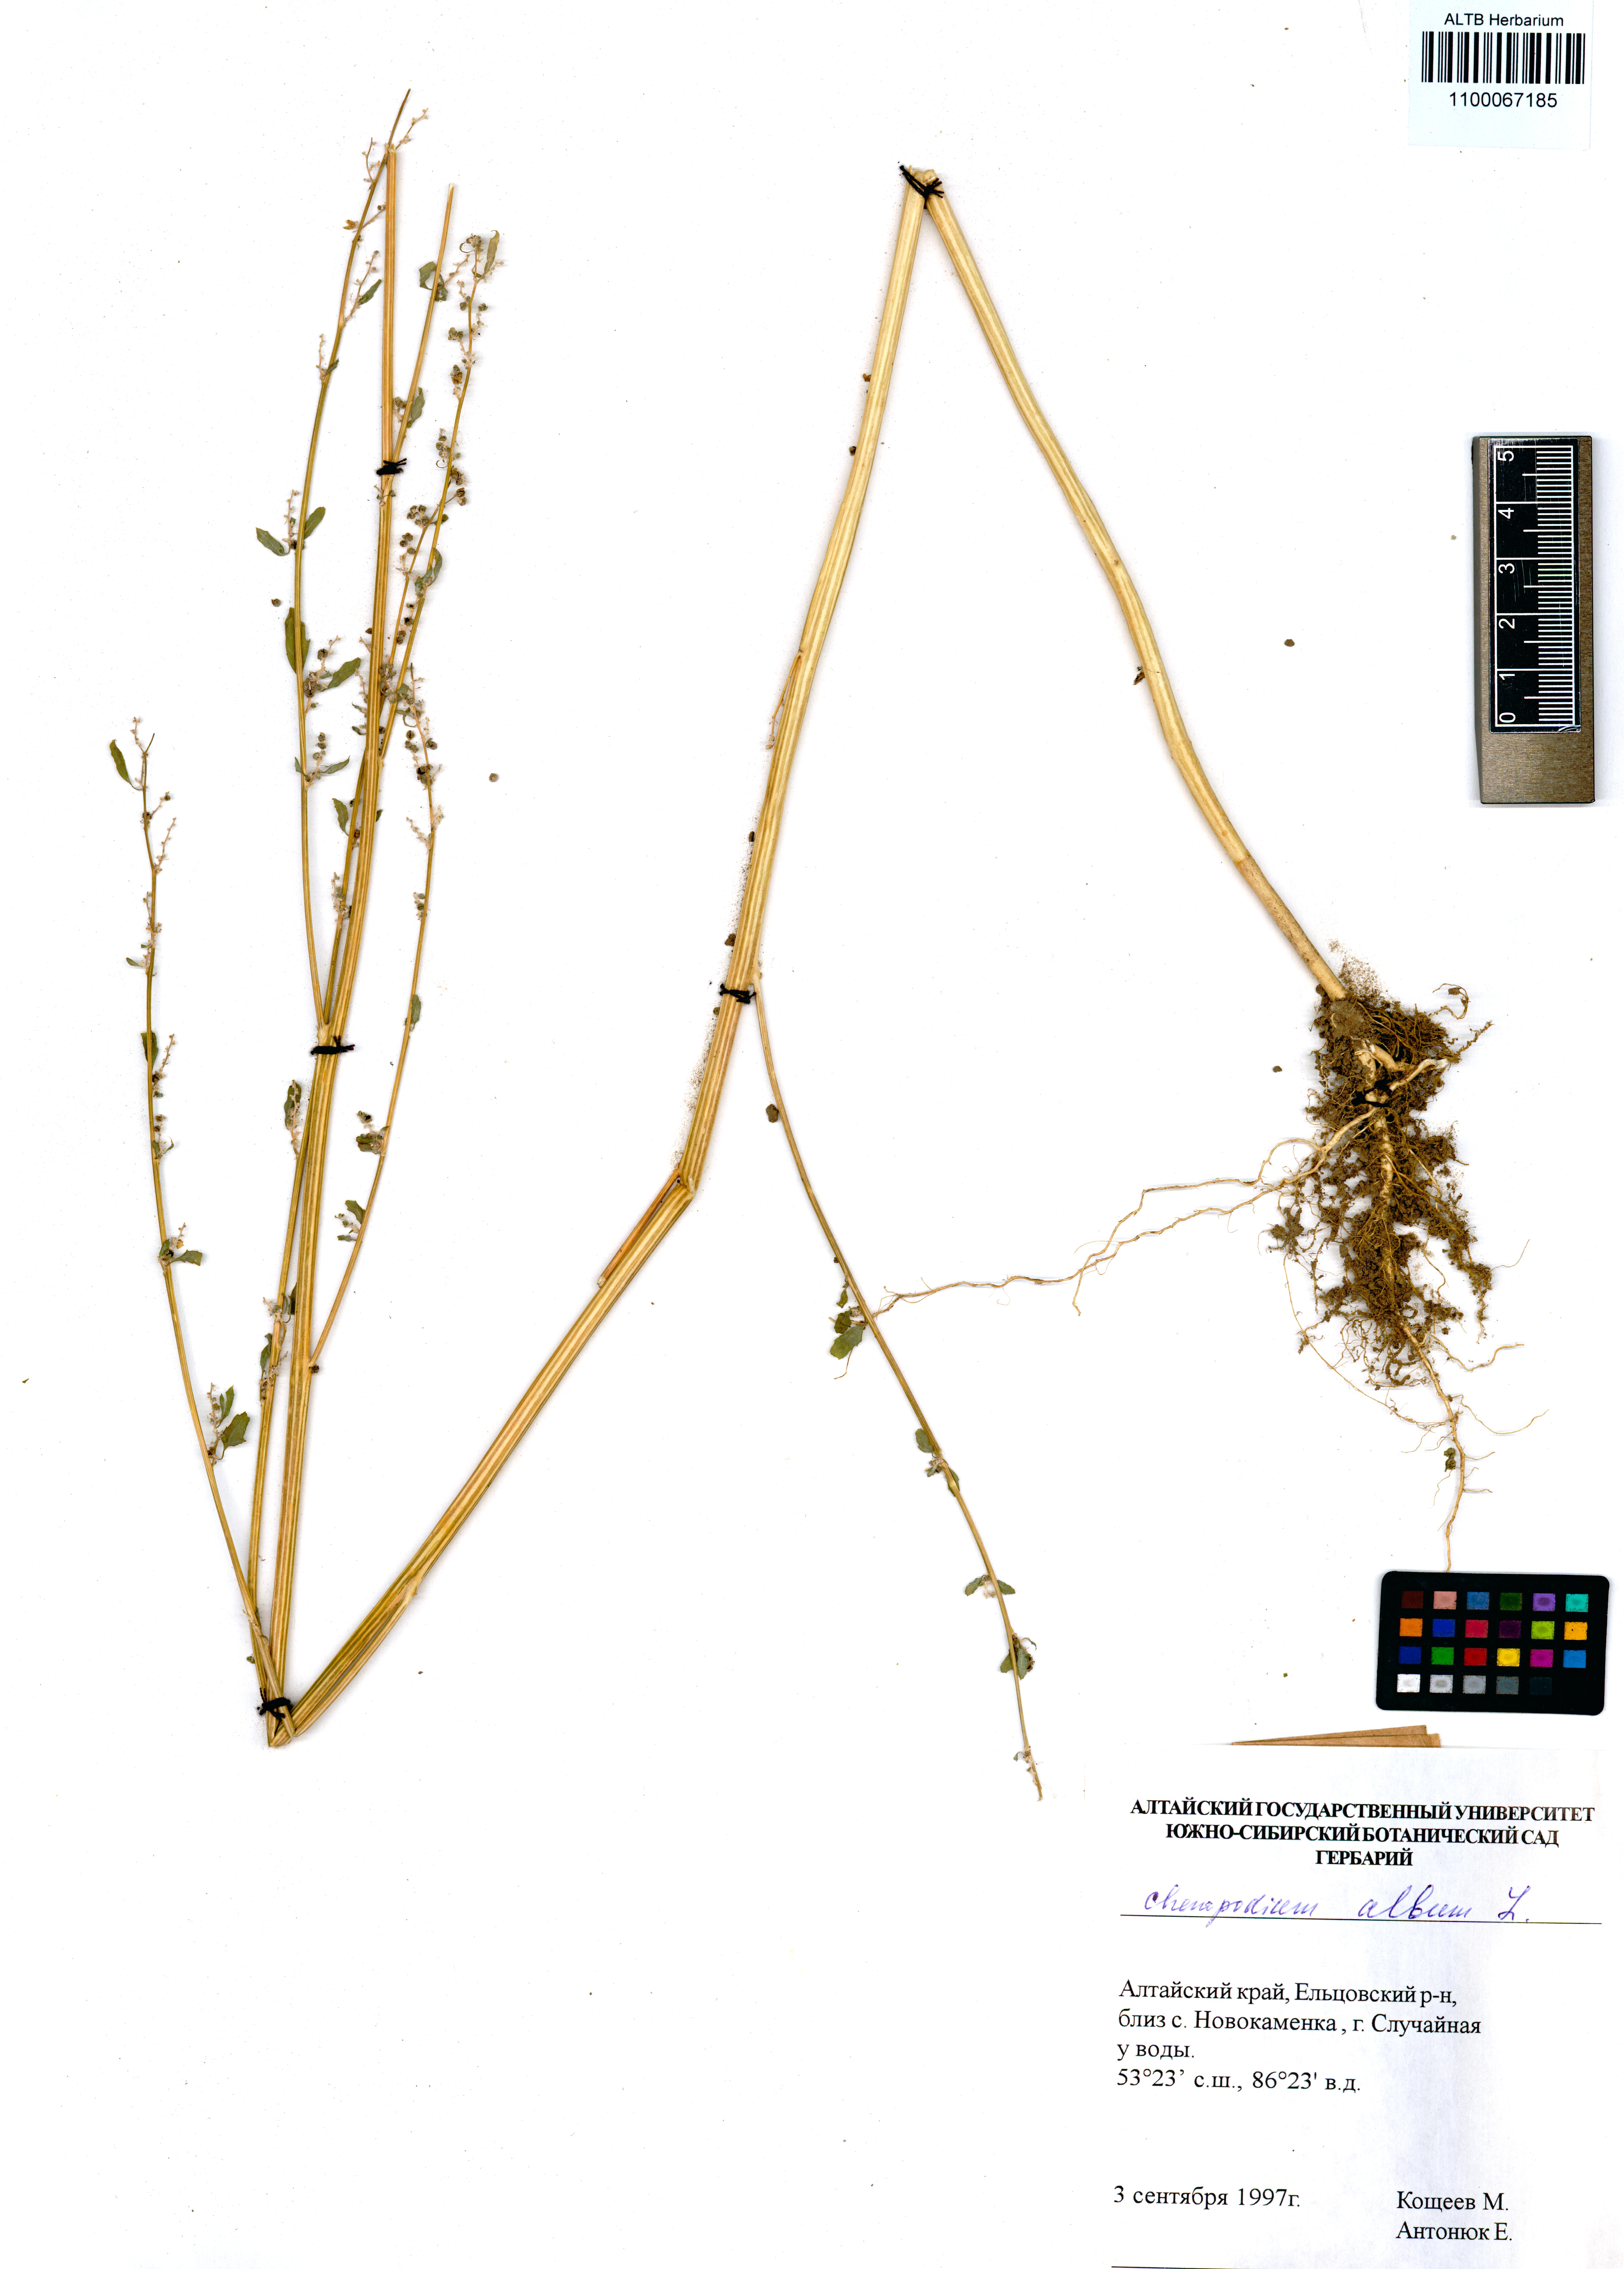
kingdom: Plantae
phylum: Tracheophyta
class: Magnoliopsida
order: Caryophyllales
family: Amaranthaceae
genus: Chenopodium
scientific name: Chenopodium album
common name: Fat-hen
